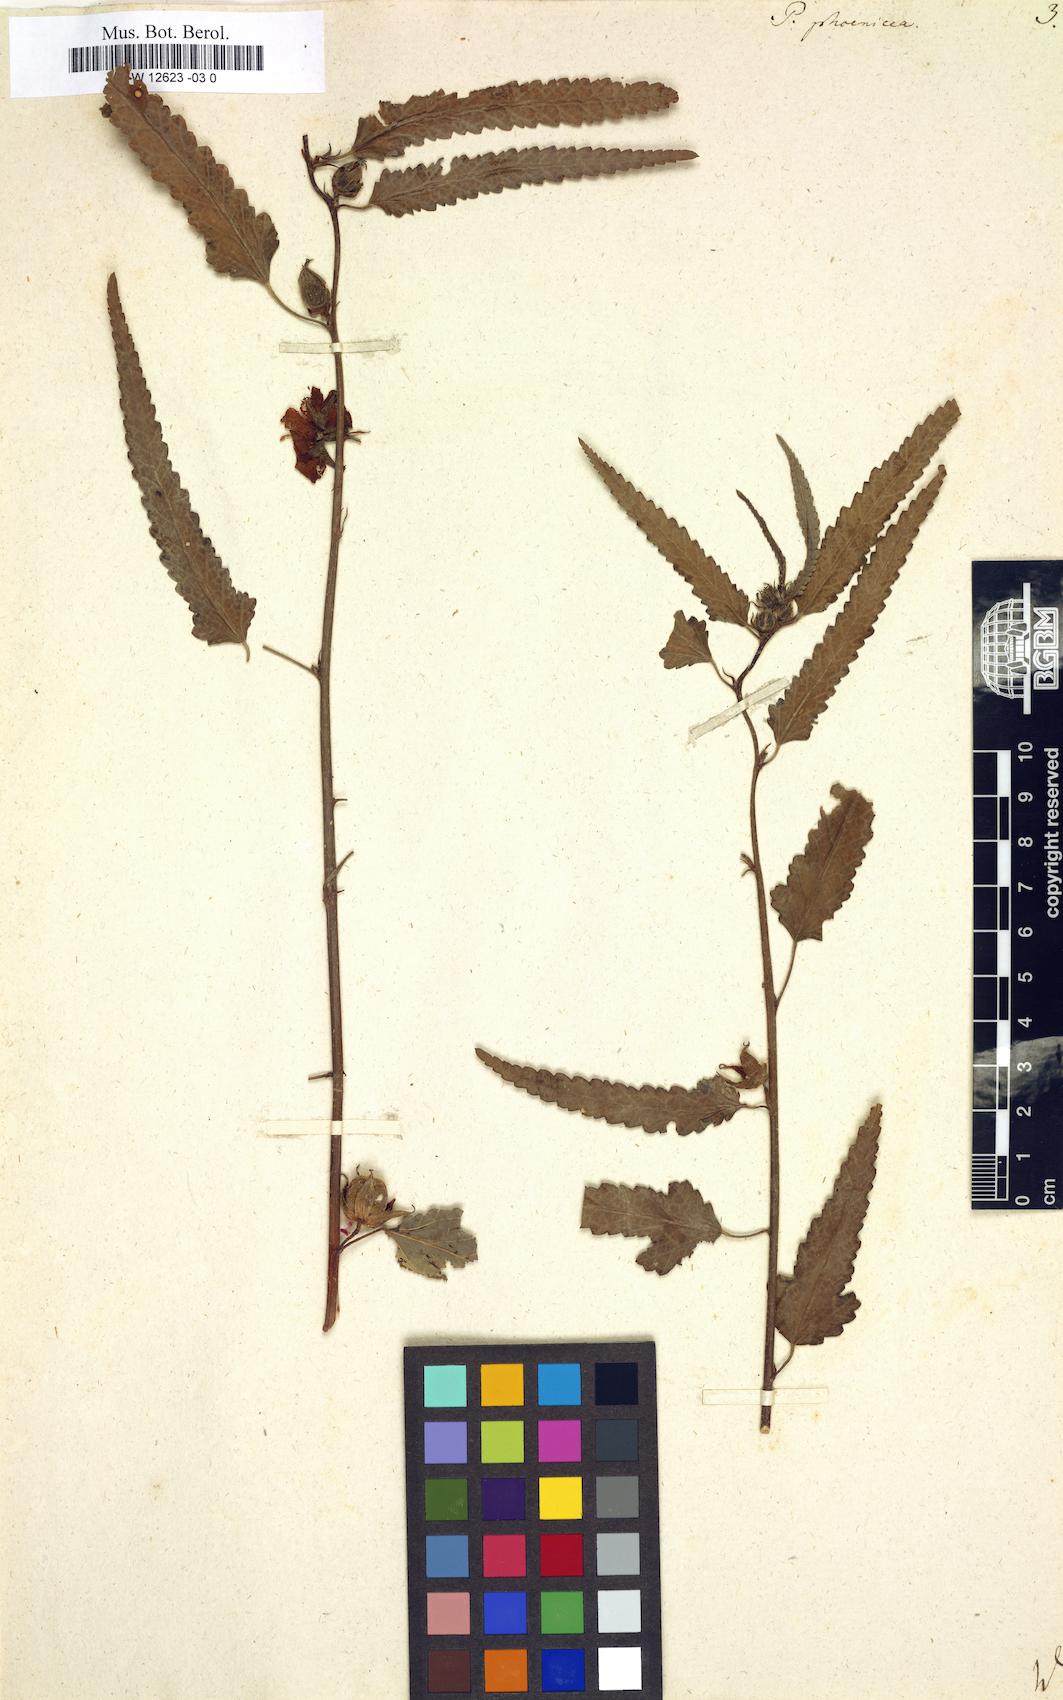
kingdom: Plantae
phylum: Tracheophyta
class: Magnoliopsida
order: Malvales
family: Malvaceae
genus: Pentapetes
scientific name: Pentapetes phoenicea
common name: Copper-cups
